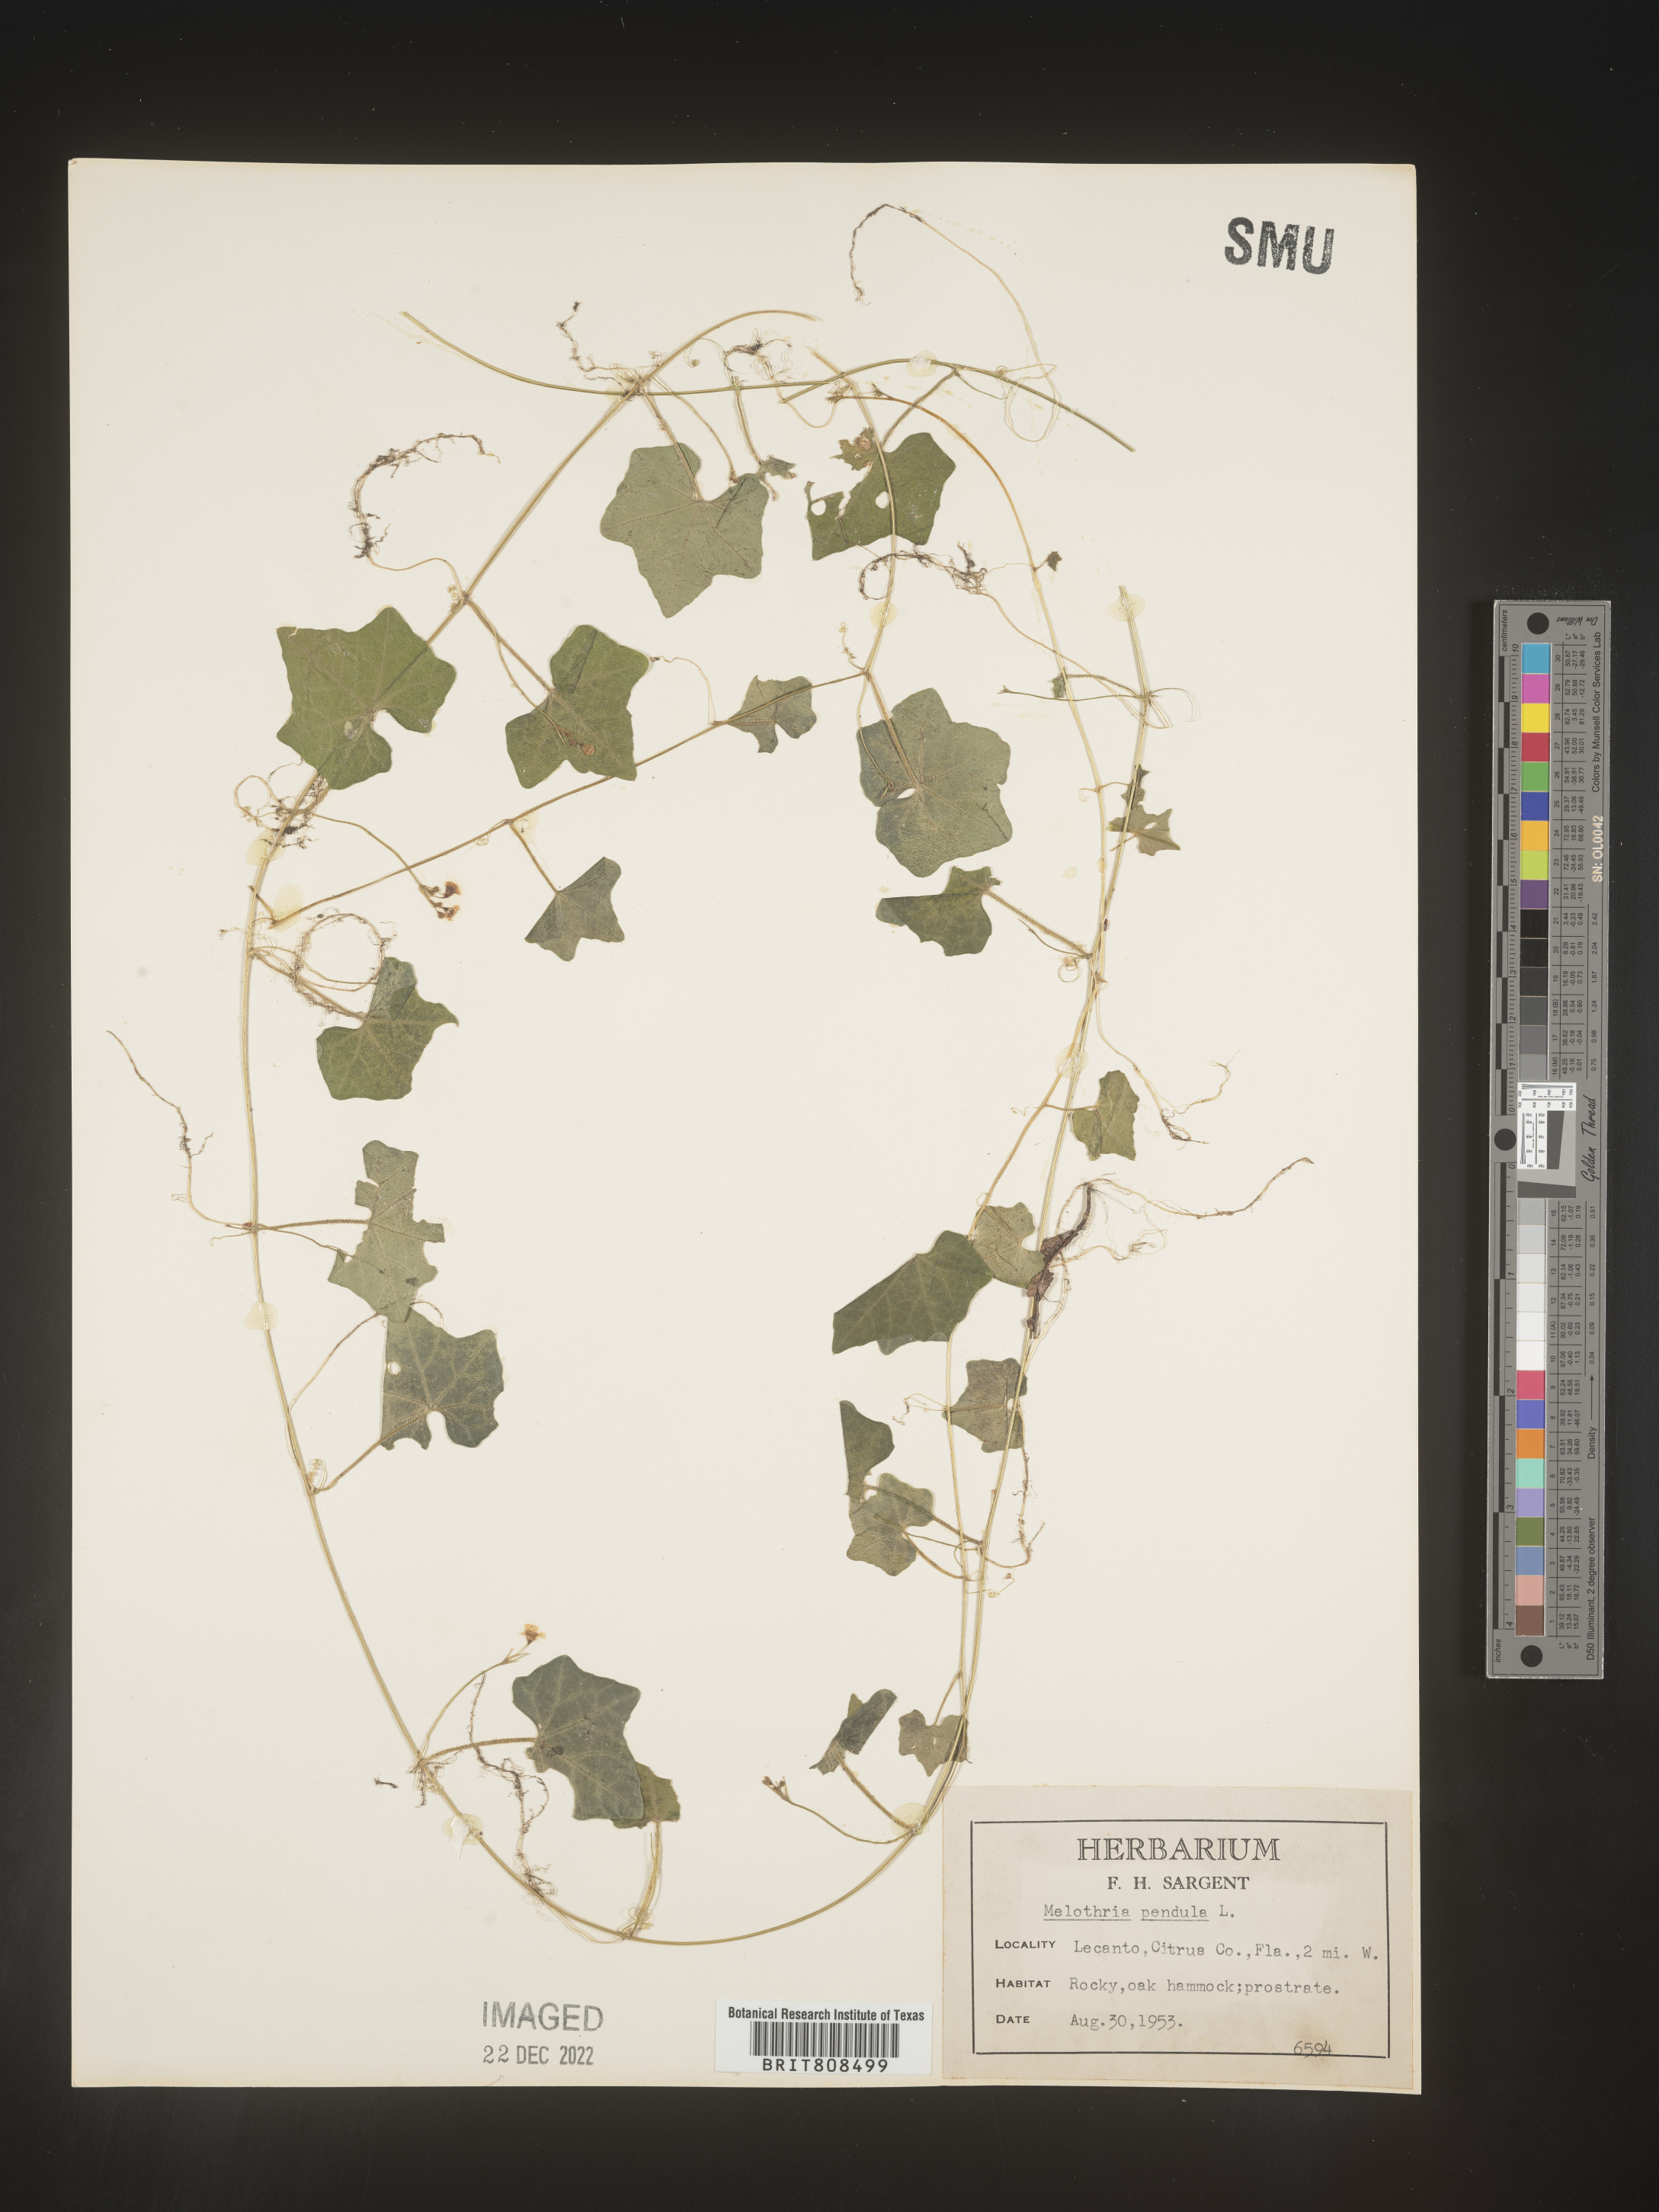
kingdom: Plantae
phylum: Tracheophyta
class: Magnoliopsida
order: Cucurbitales
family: Cucurbitaceae
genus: Melothria
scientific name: Melothria pendula
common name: Creeping-cucumber
